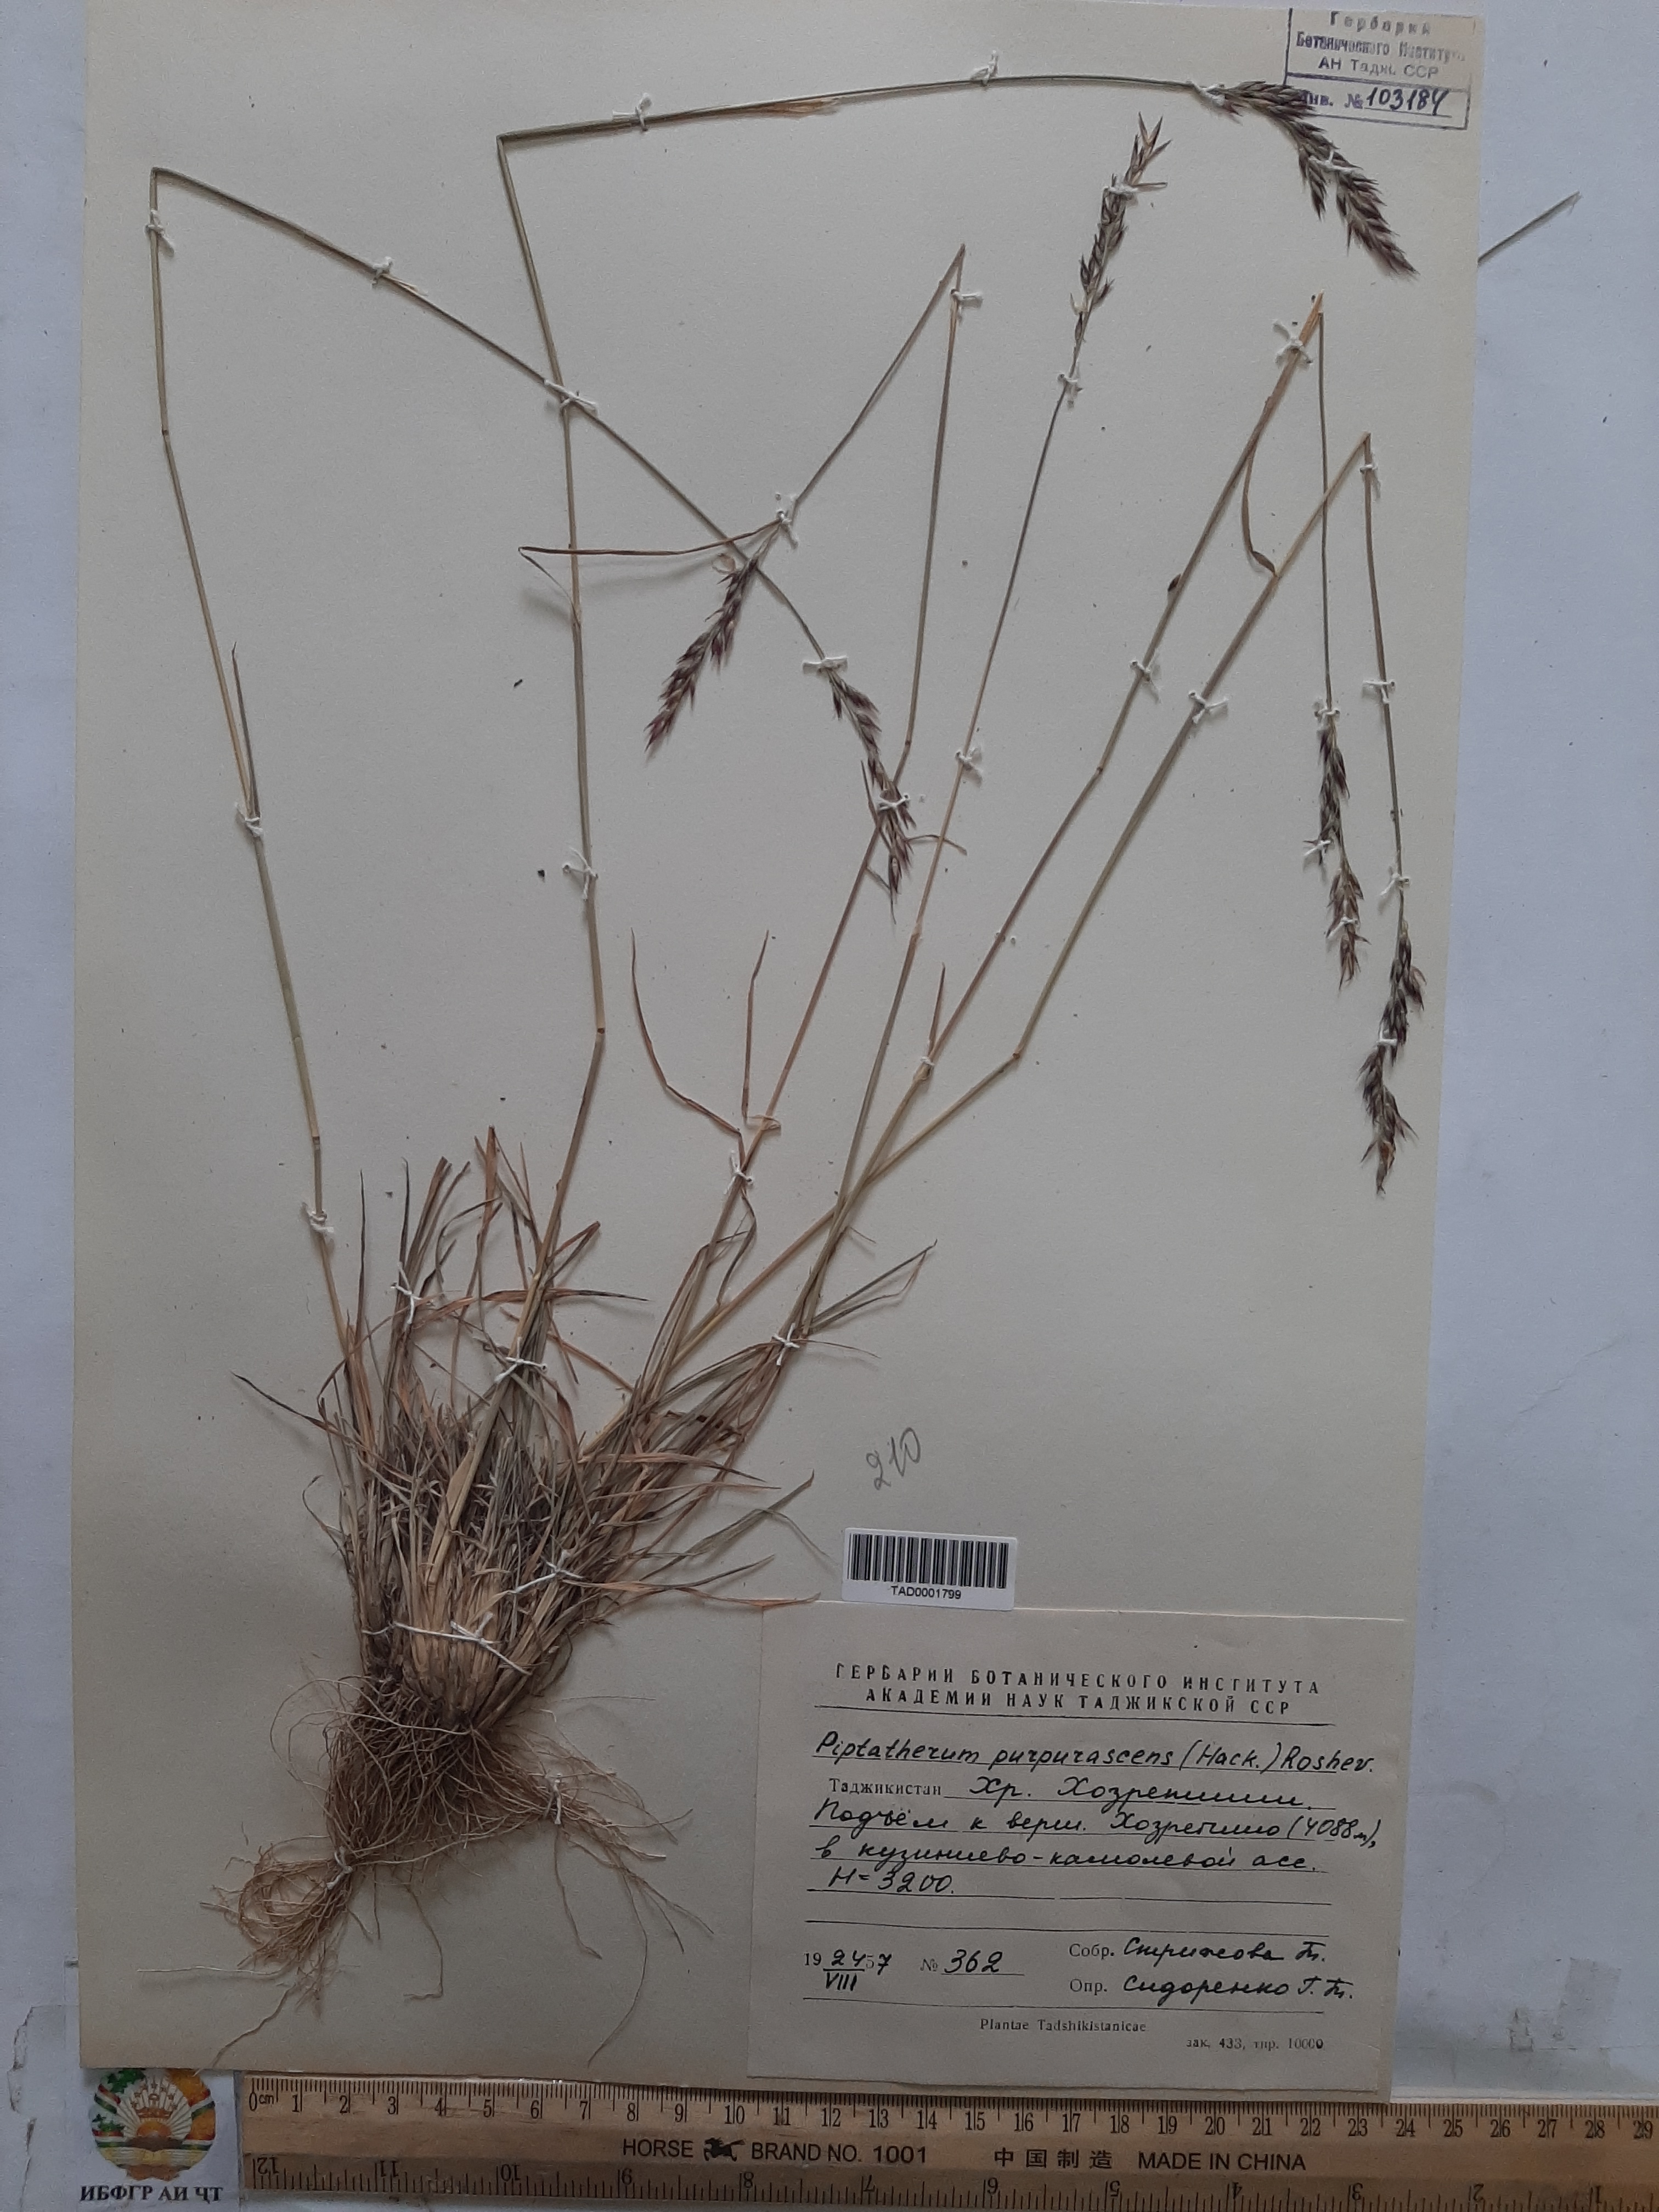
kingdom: Plantae
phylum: Tracheophyta
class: Liliopsida
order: Poales
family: Poaceae
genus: Piptatherum
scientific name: Piptatherum purpurascens
